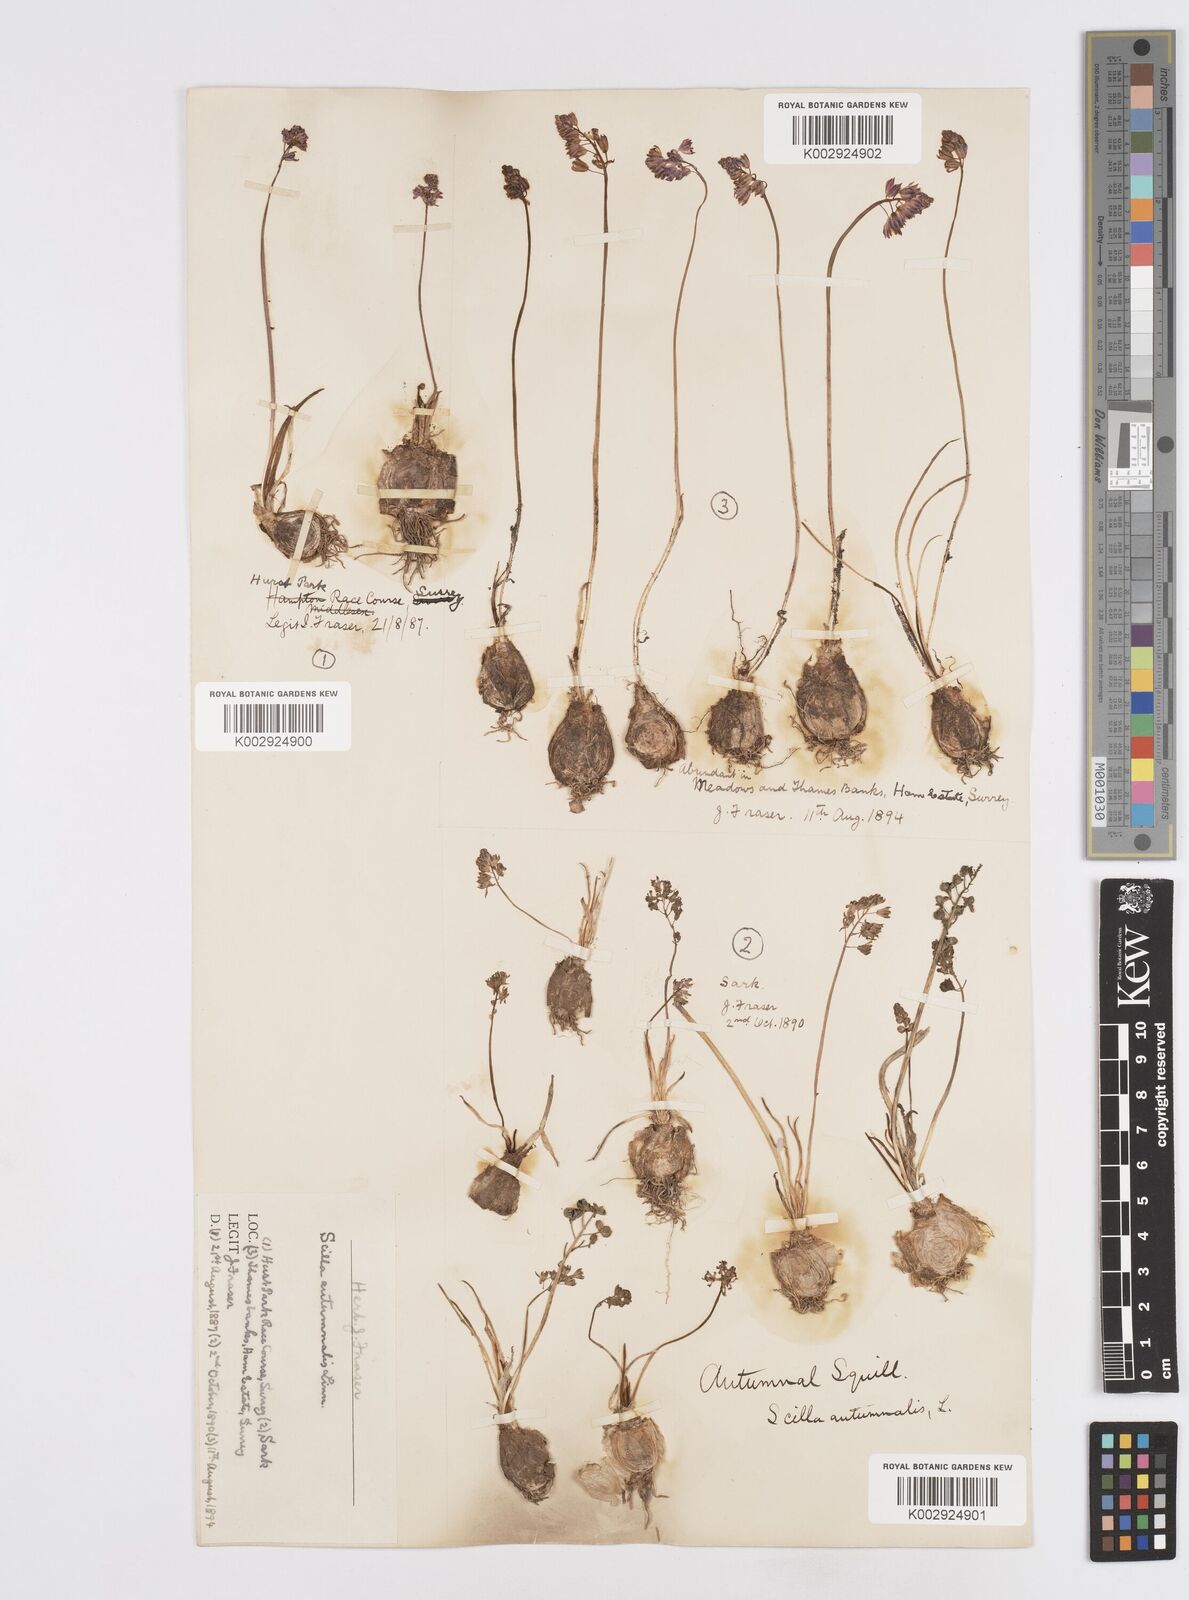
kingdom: Plantae
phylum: Tracheophyta
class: Liliopsida
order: Asparagales
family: Asparagaceae
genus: Prospero
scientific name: Prospero autumnale
